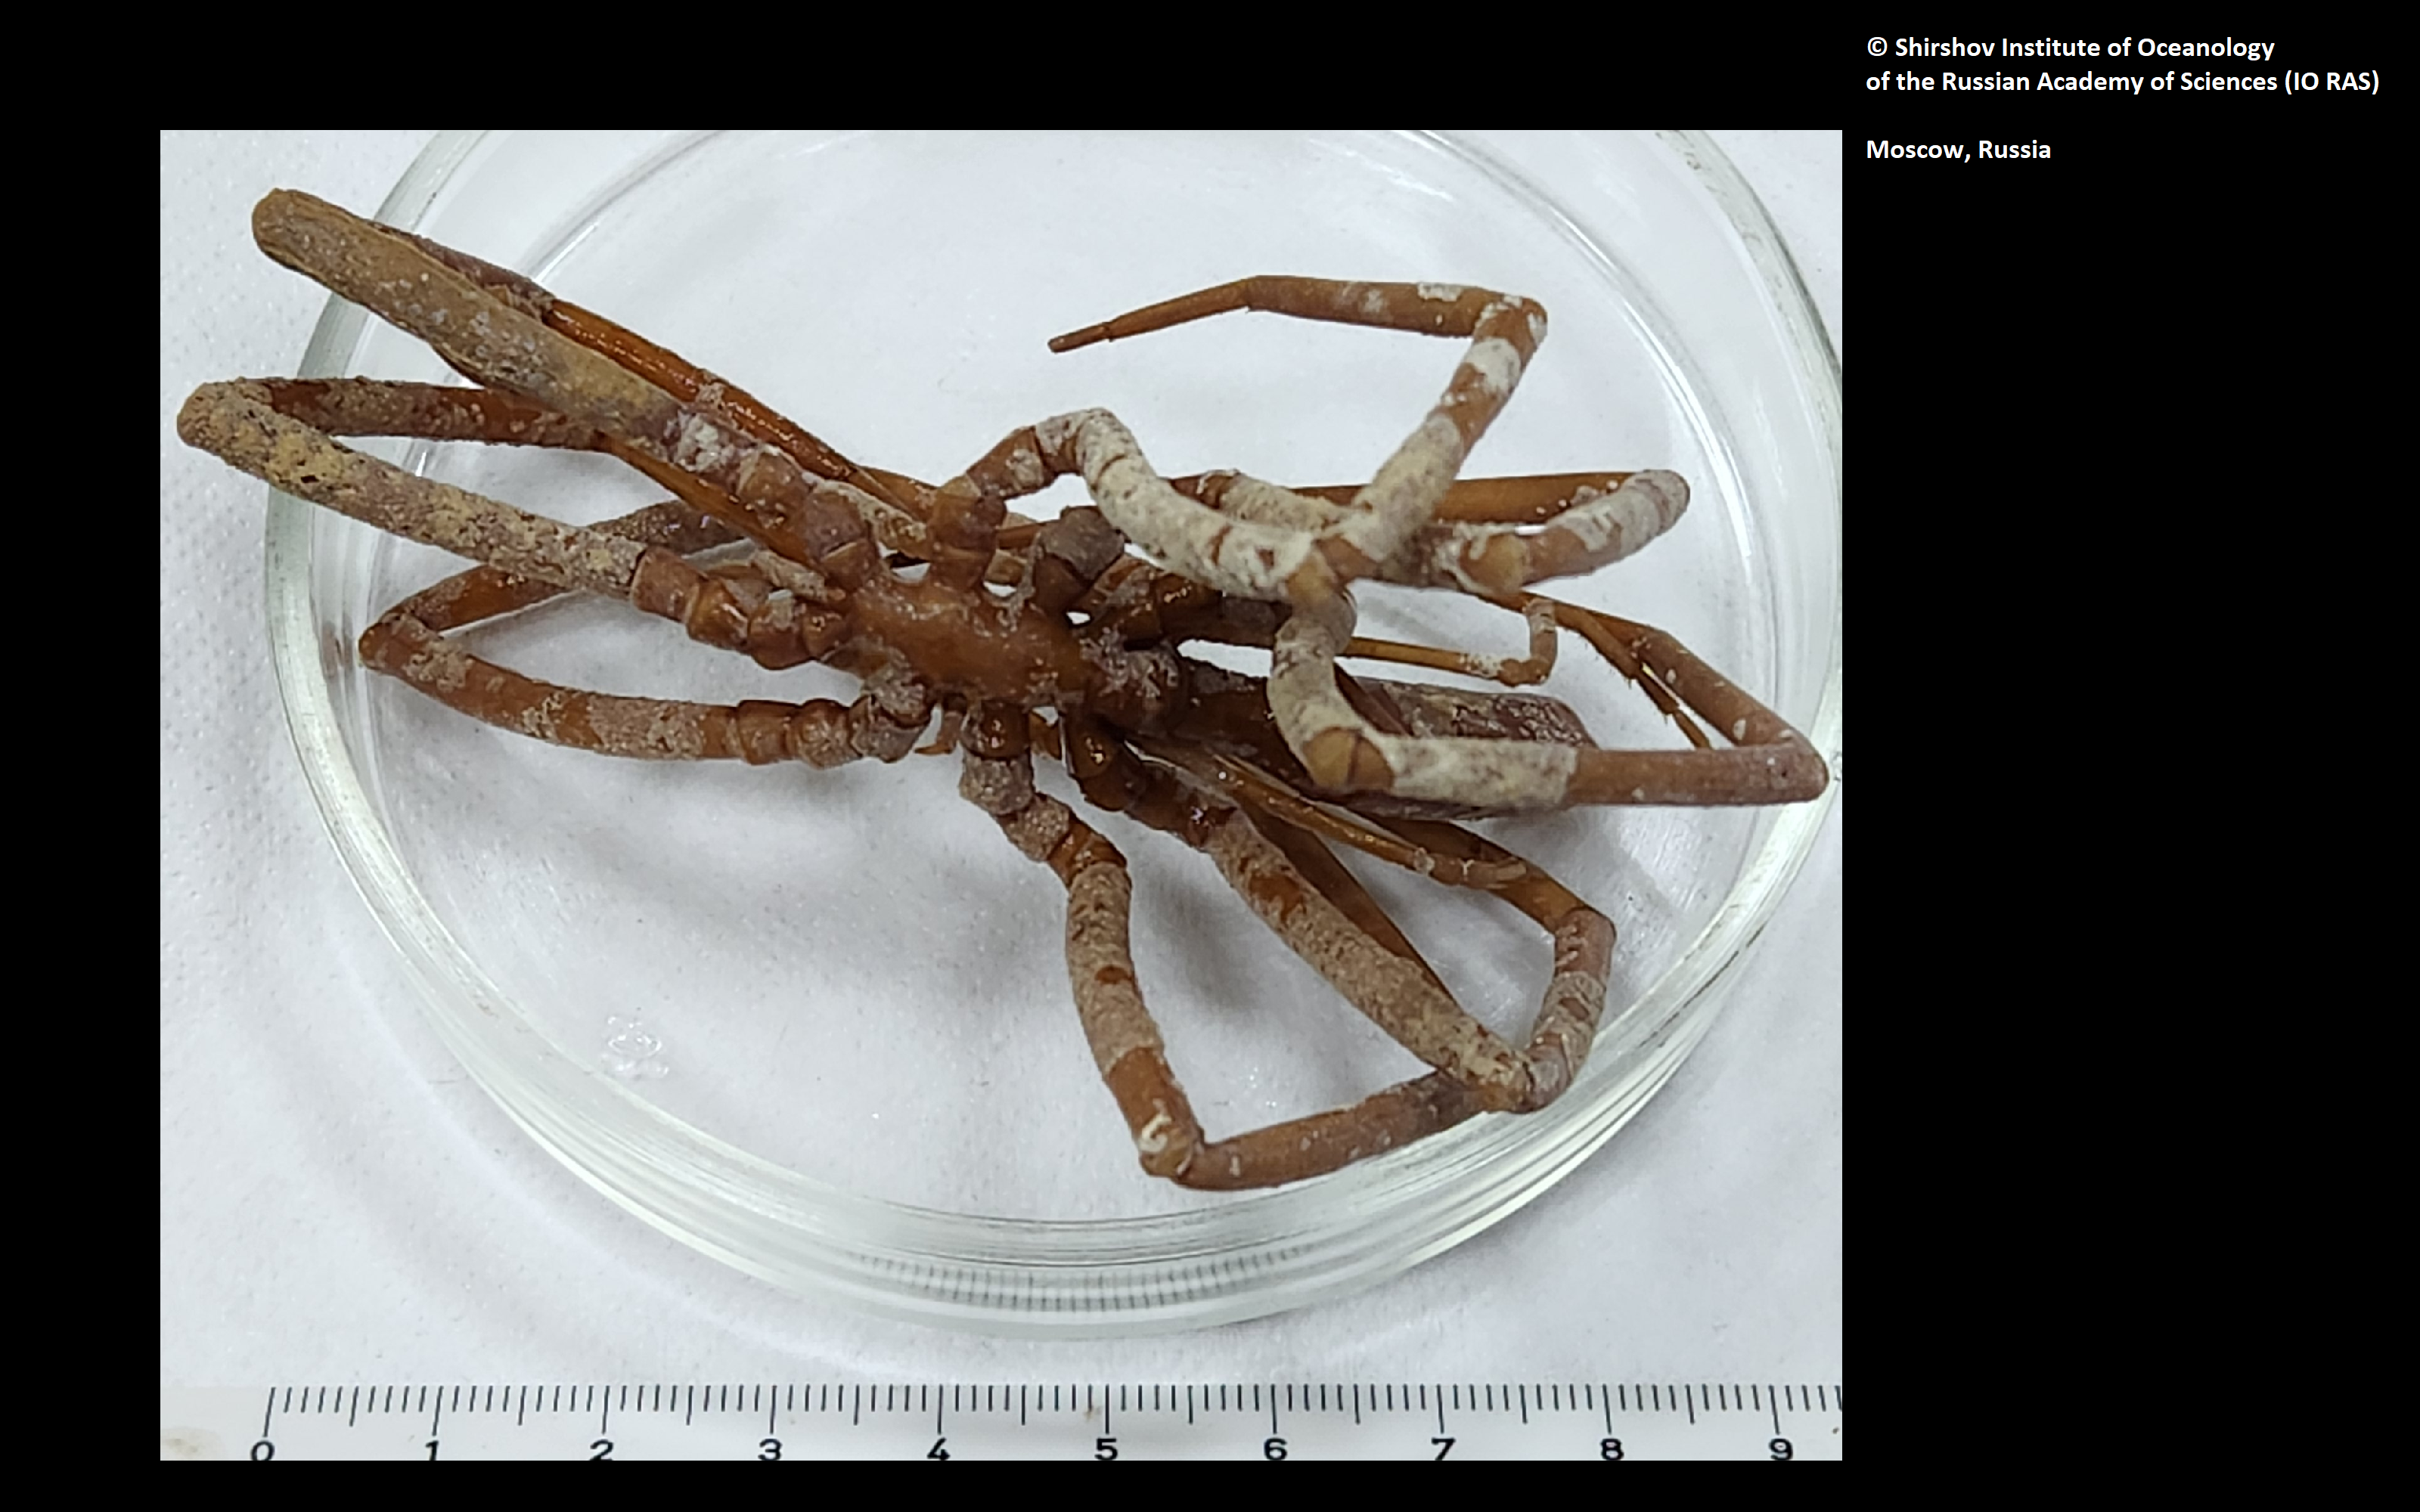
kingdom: Animalia
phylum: Arthropoda
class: Pycnogonida
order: Pantopoda
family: Colossendeidae
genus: Colossendeis
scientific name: Colossendeis potentis
